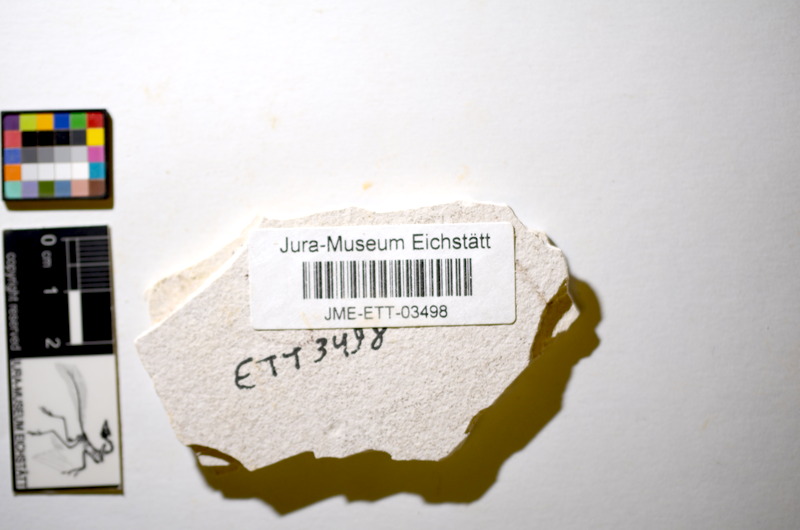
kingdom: Animalia
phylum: Chordata
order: Salmoniformes
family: Orthogonikleithridae
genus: Orthogonikleithrus
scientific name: Orthogonikleithrus hoelli
